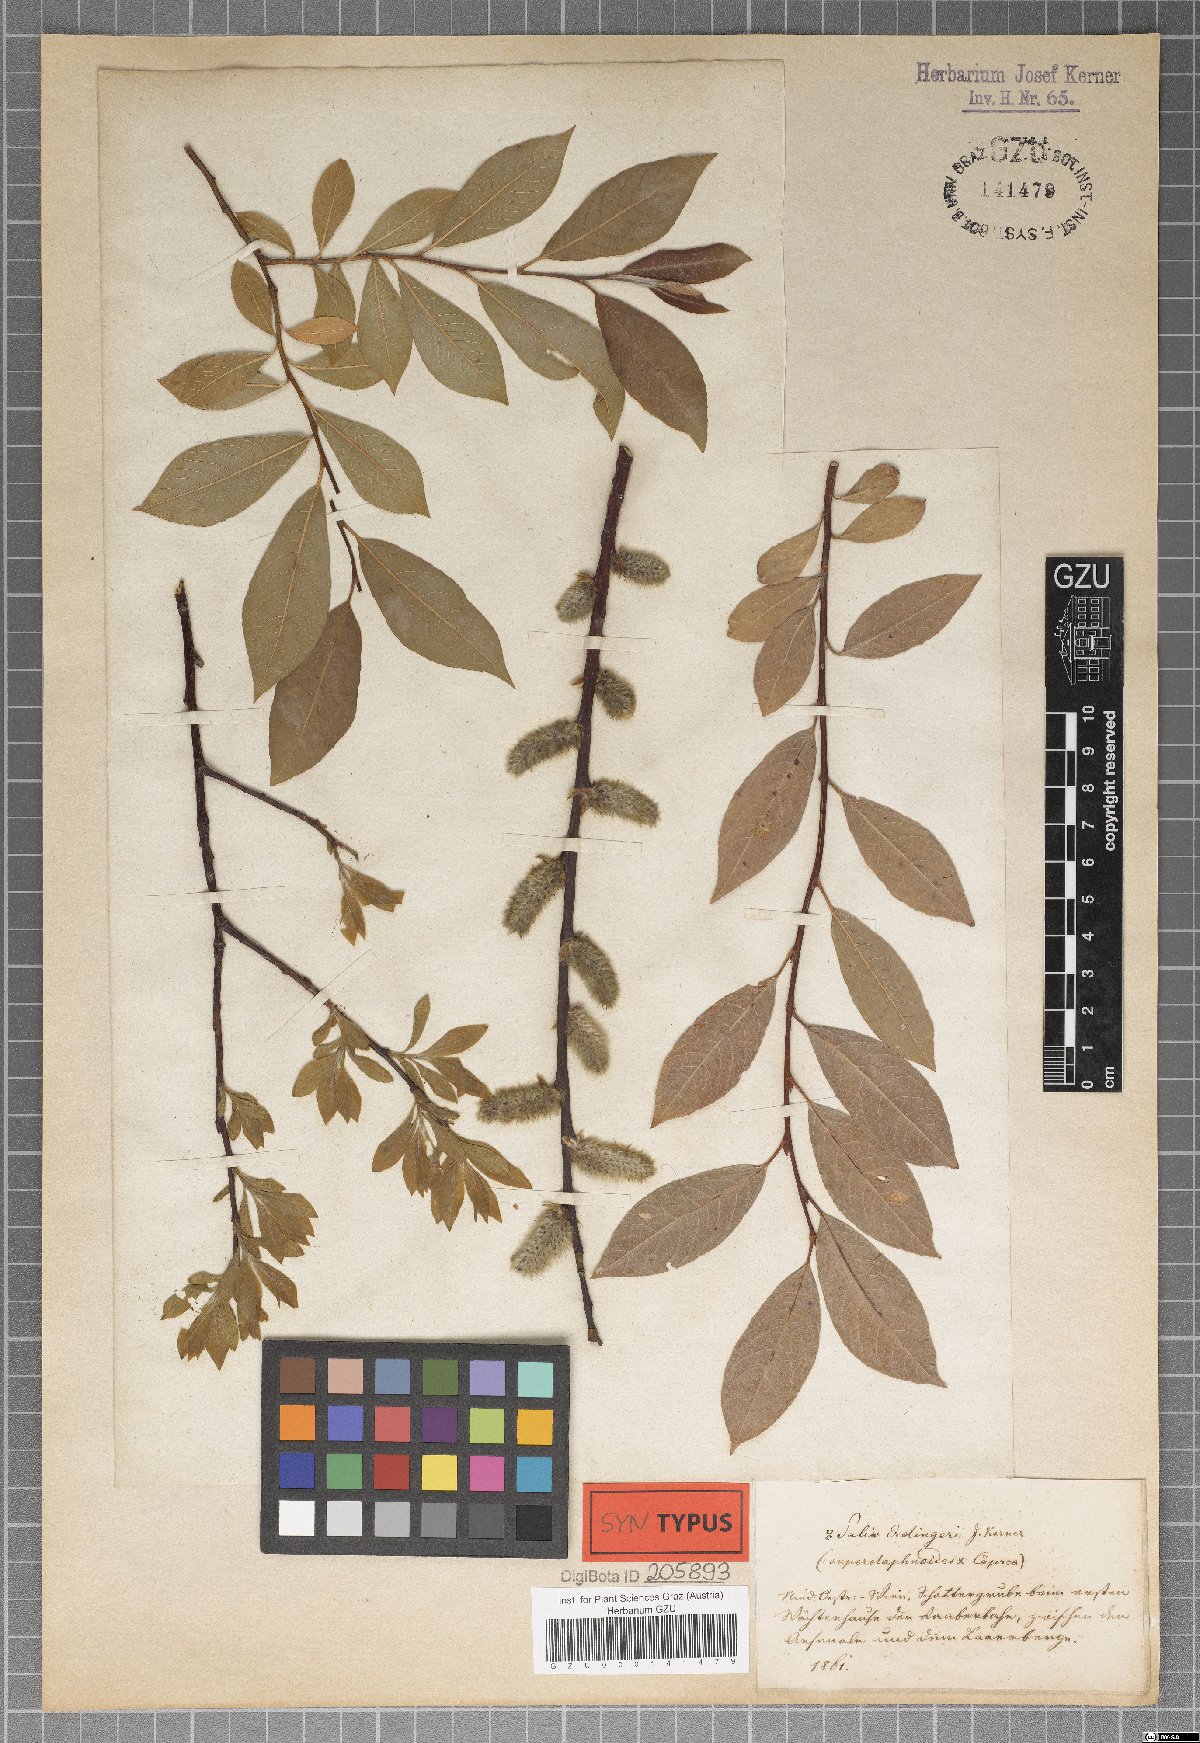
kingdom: Plantae
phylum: Tracheophyta
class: Magnoliopsida
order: Malpighiales
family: Salicaceae
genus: Salix
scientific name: Salix erdingeri
